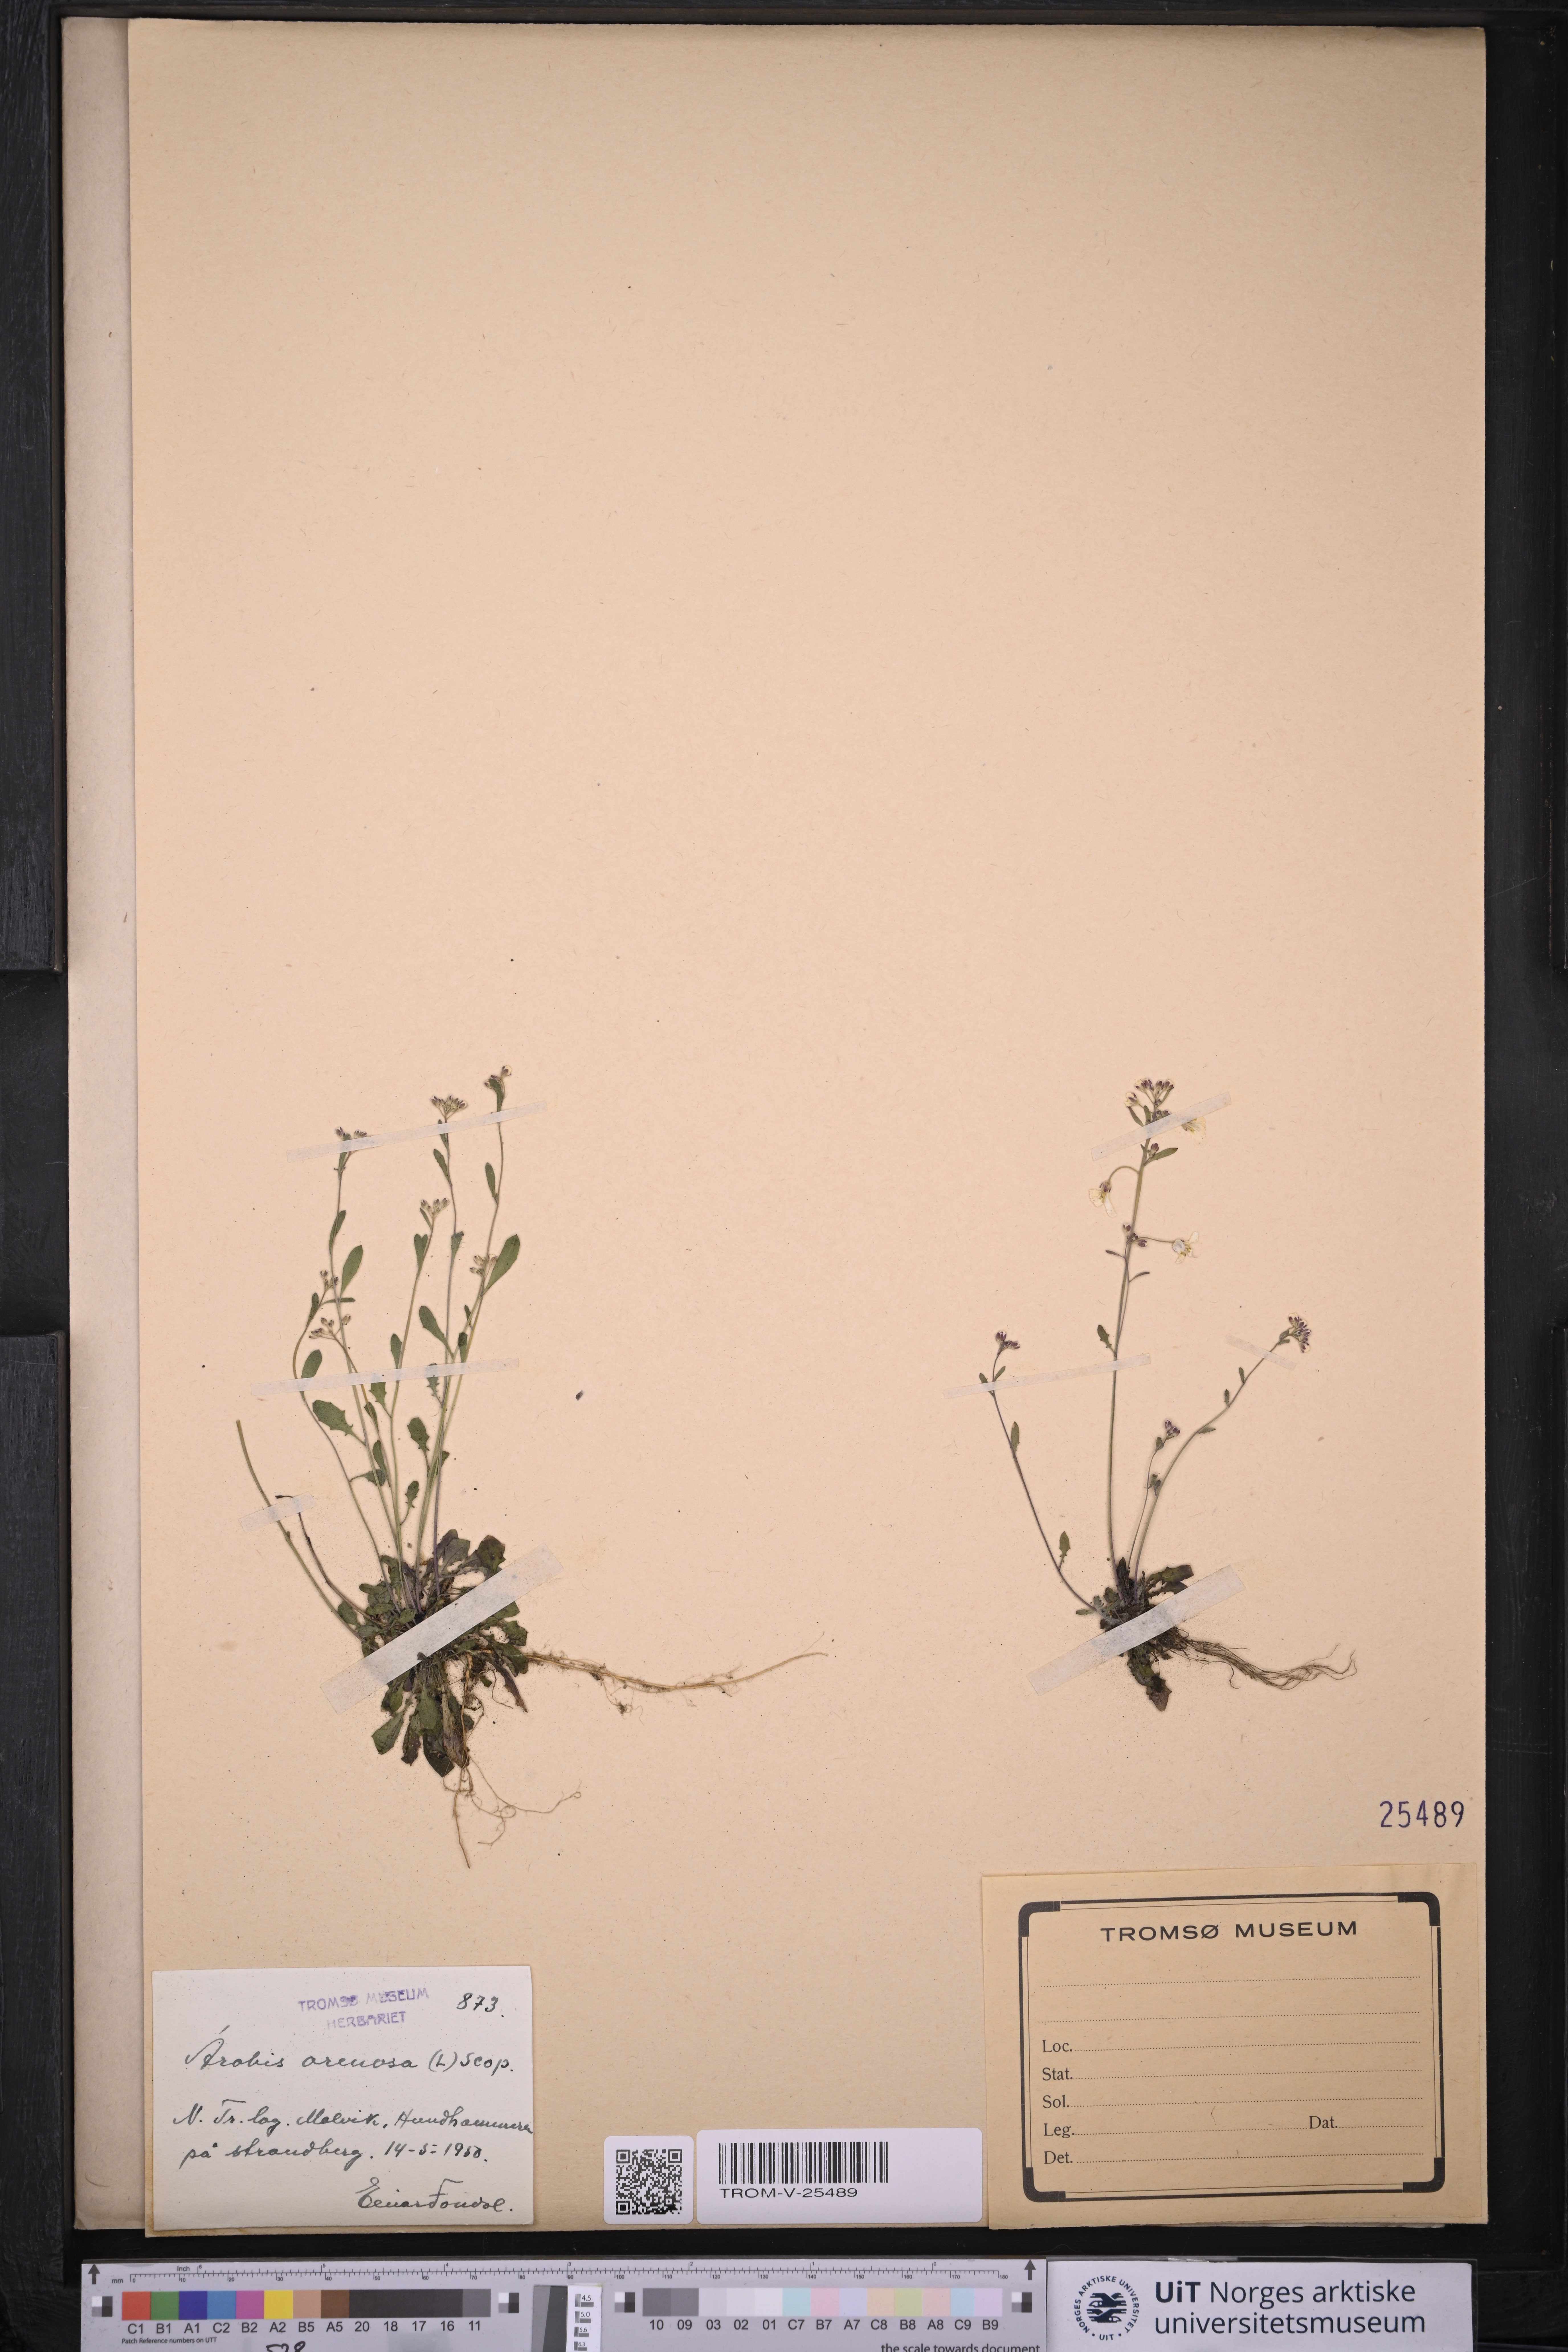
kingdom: Plantae
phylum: Tracheophyta
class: Magnoliopsida
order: Brassicales
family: Brassicaceae
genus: Arabidopsis
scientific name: Arabidopsis arenosa
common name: Sand rock-cress
